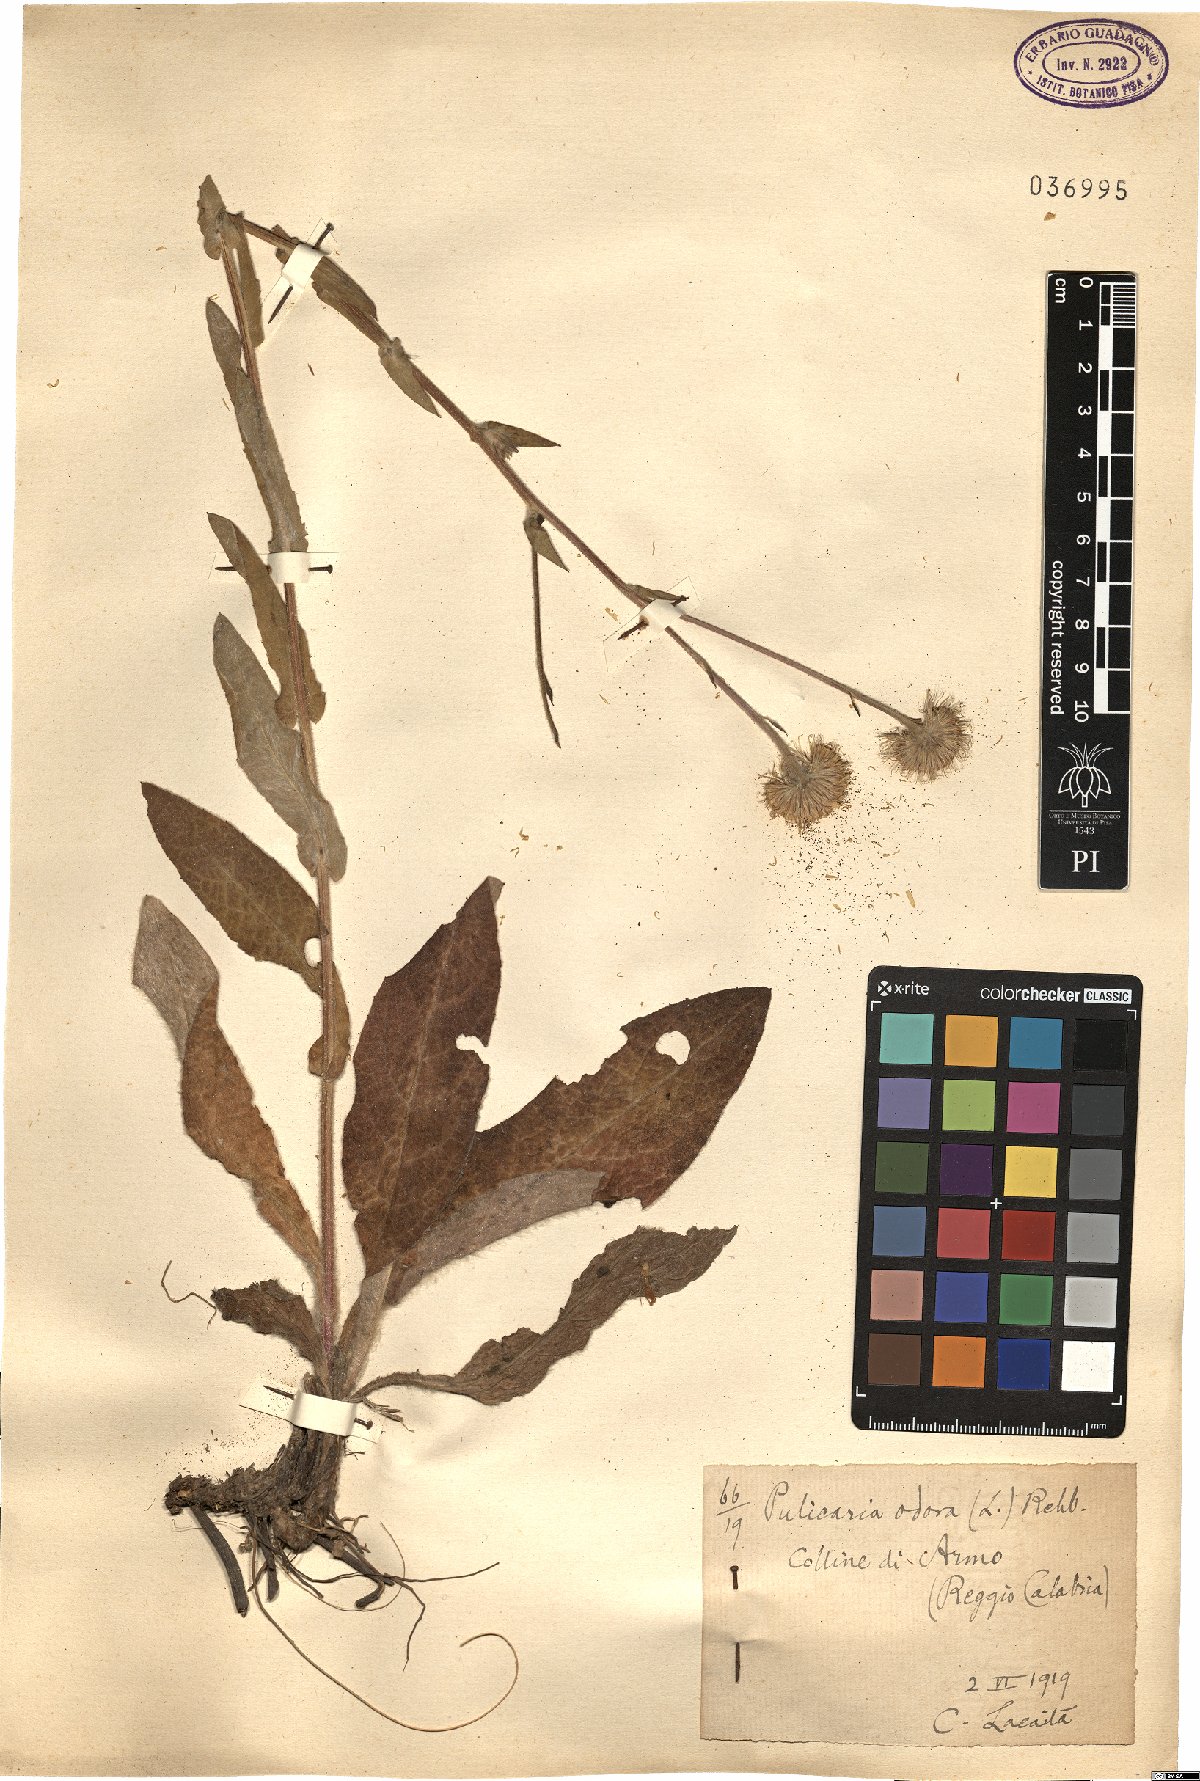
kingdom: Plantae
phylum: Tracheophyta
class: Magnoliopsida
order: Asterales
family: Asteraceae
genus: Pulicaria
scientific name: Pulicaria odora
